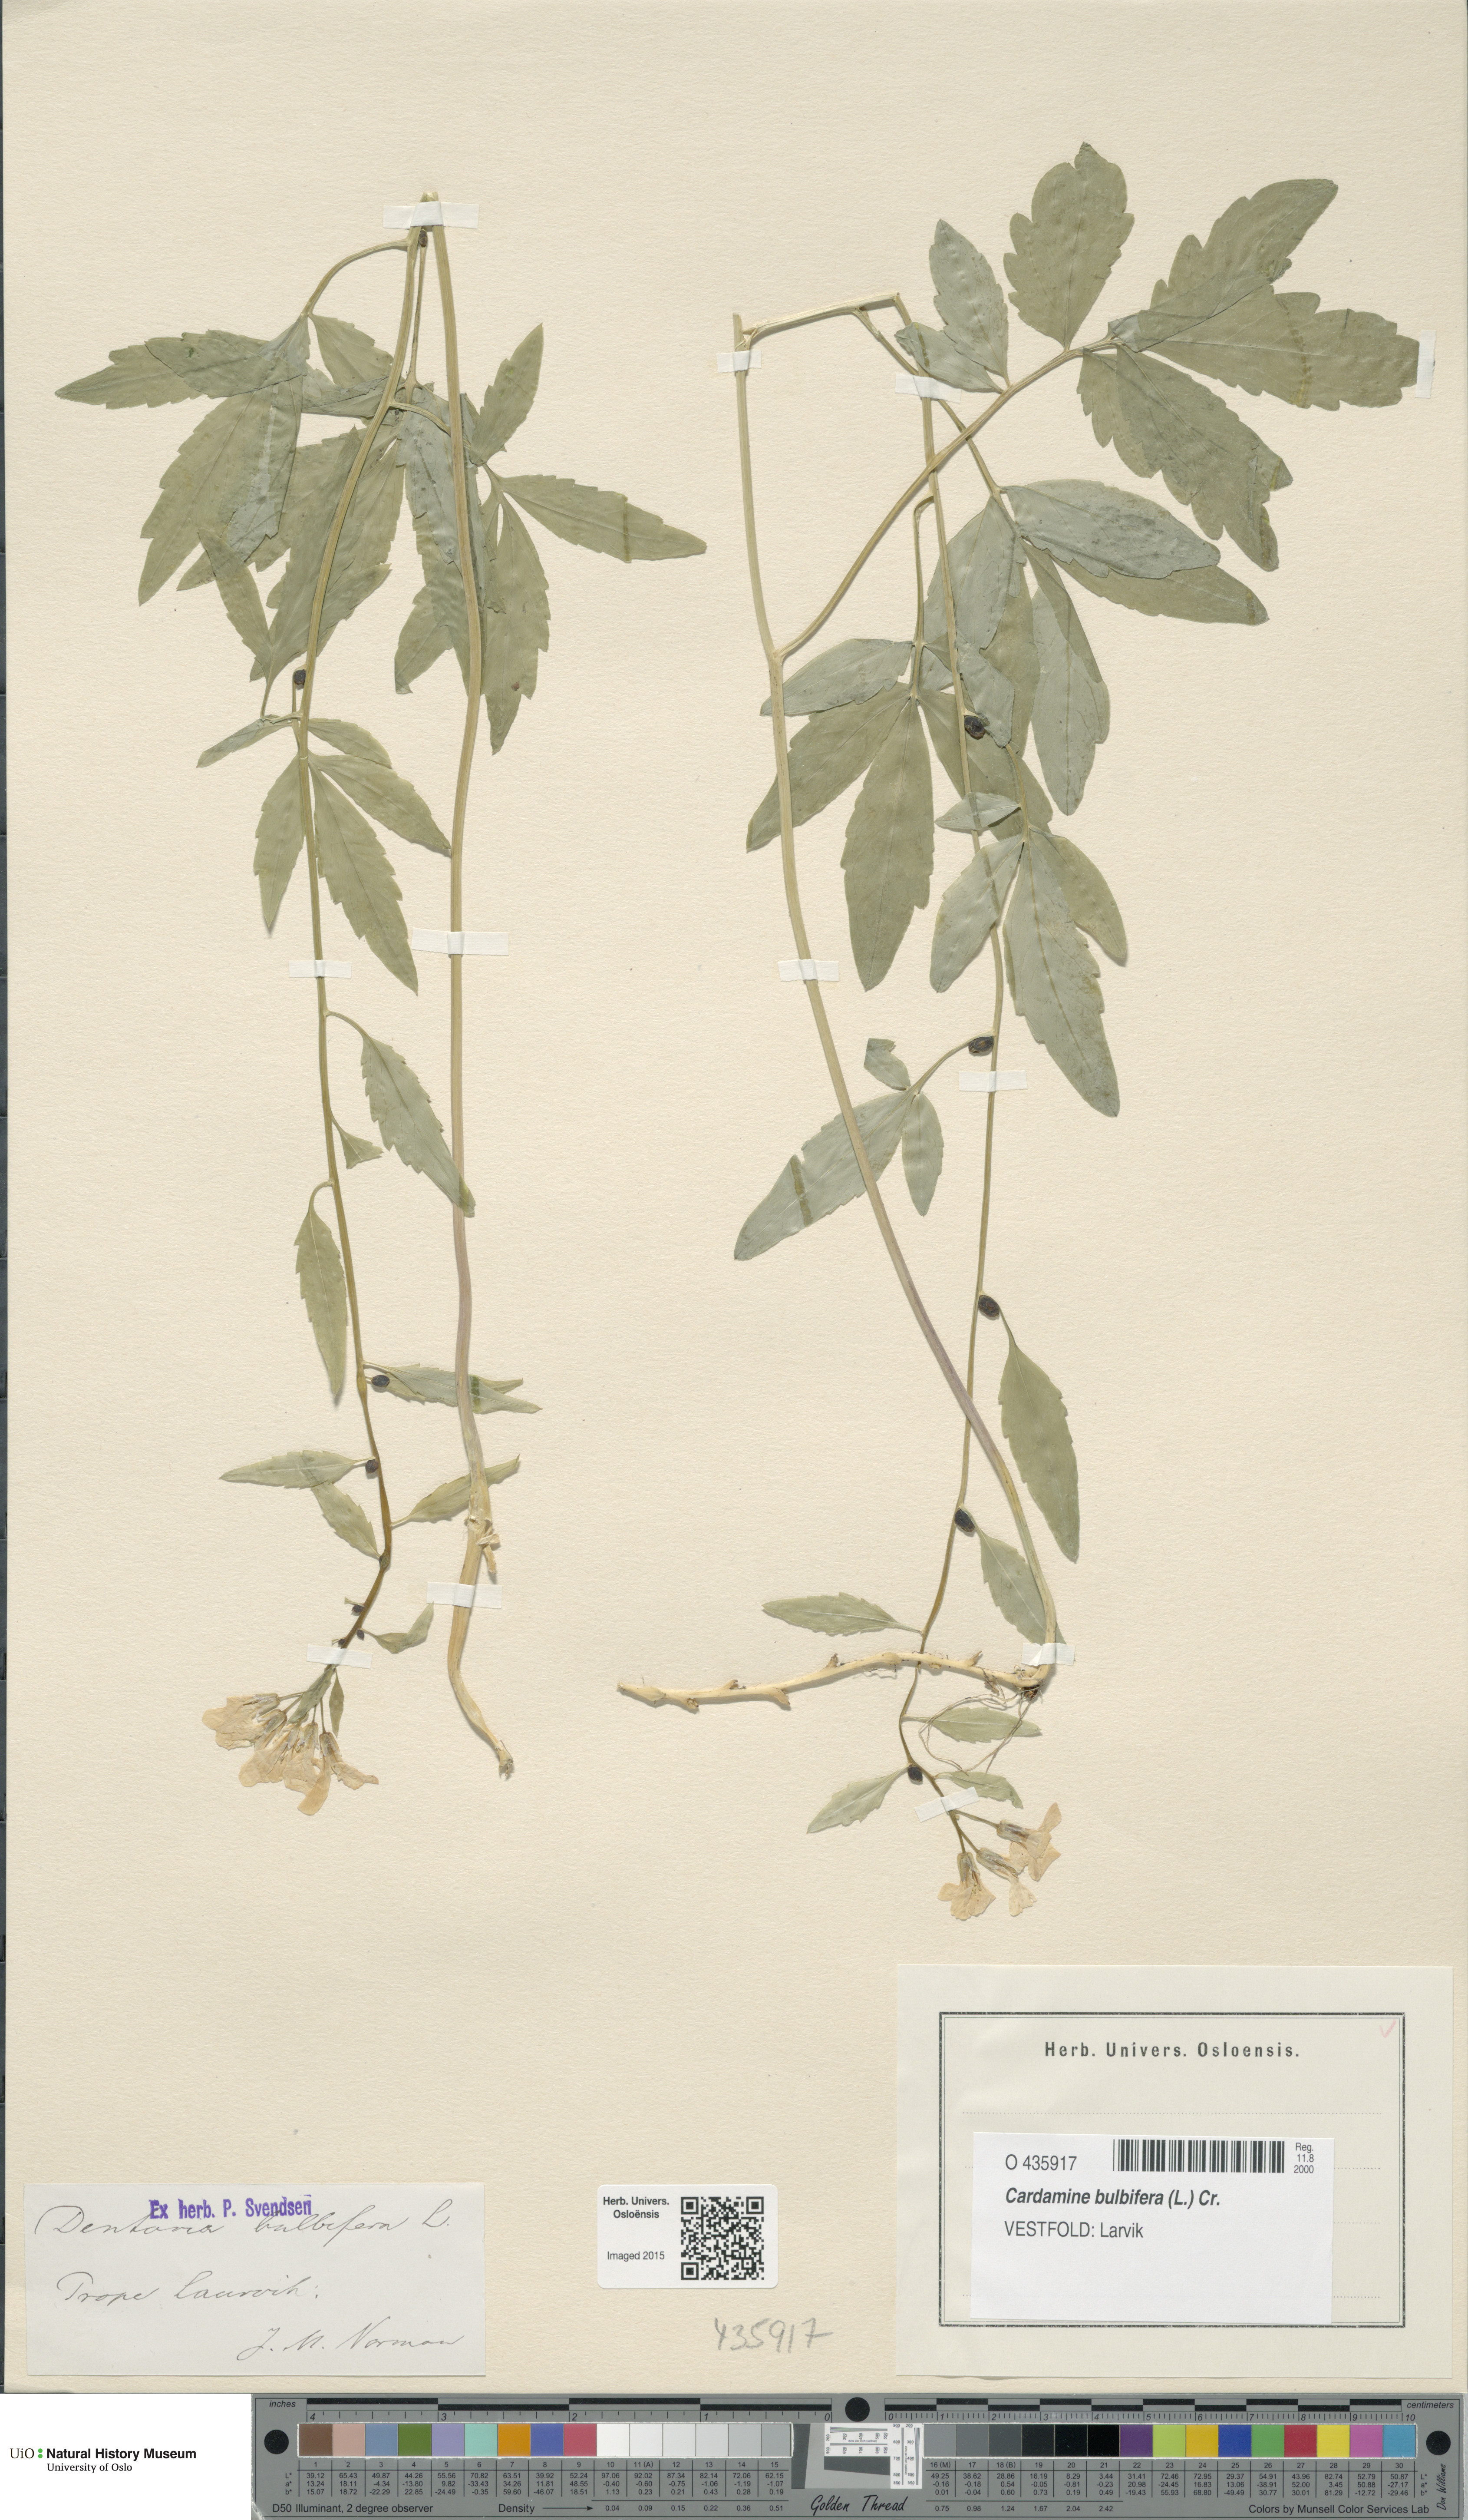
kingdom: Plantae
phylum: Tracheophyta
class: Magnoliopsida
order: Brassicales
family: Brassicaceae
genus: Cardamine
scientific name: Cardamine bulbifera
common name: Coralroot bittercress
